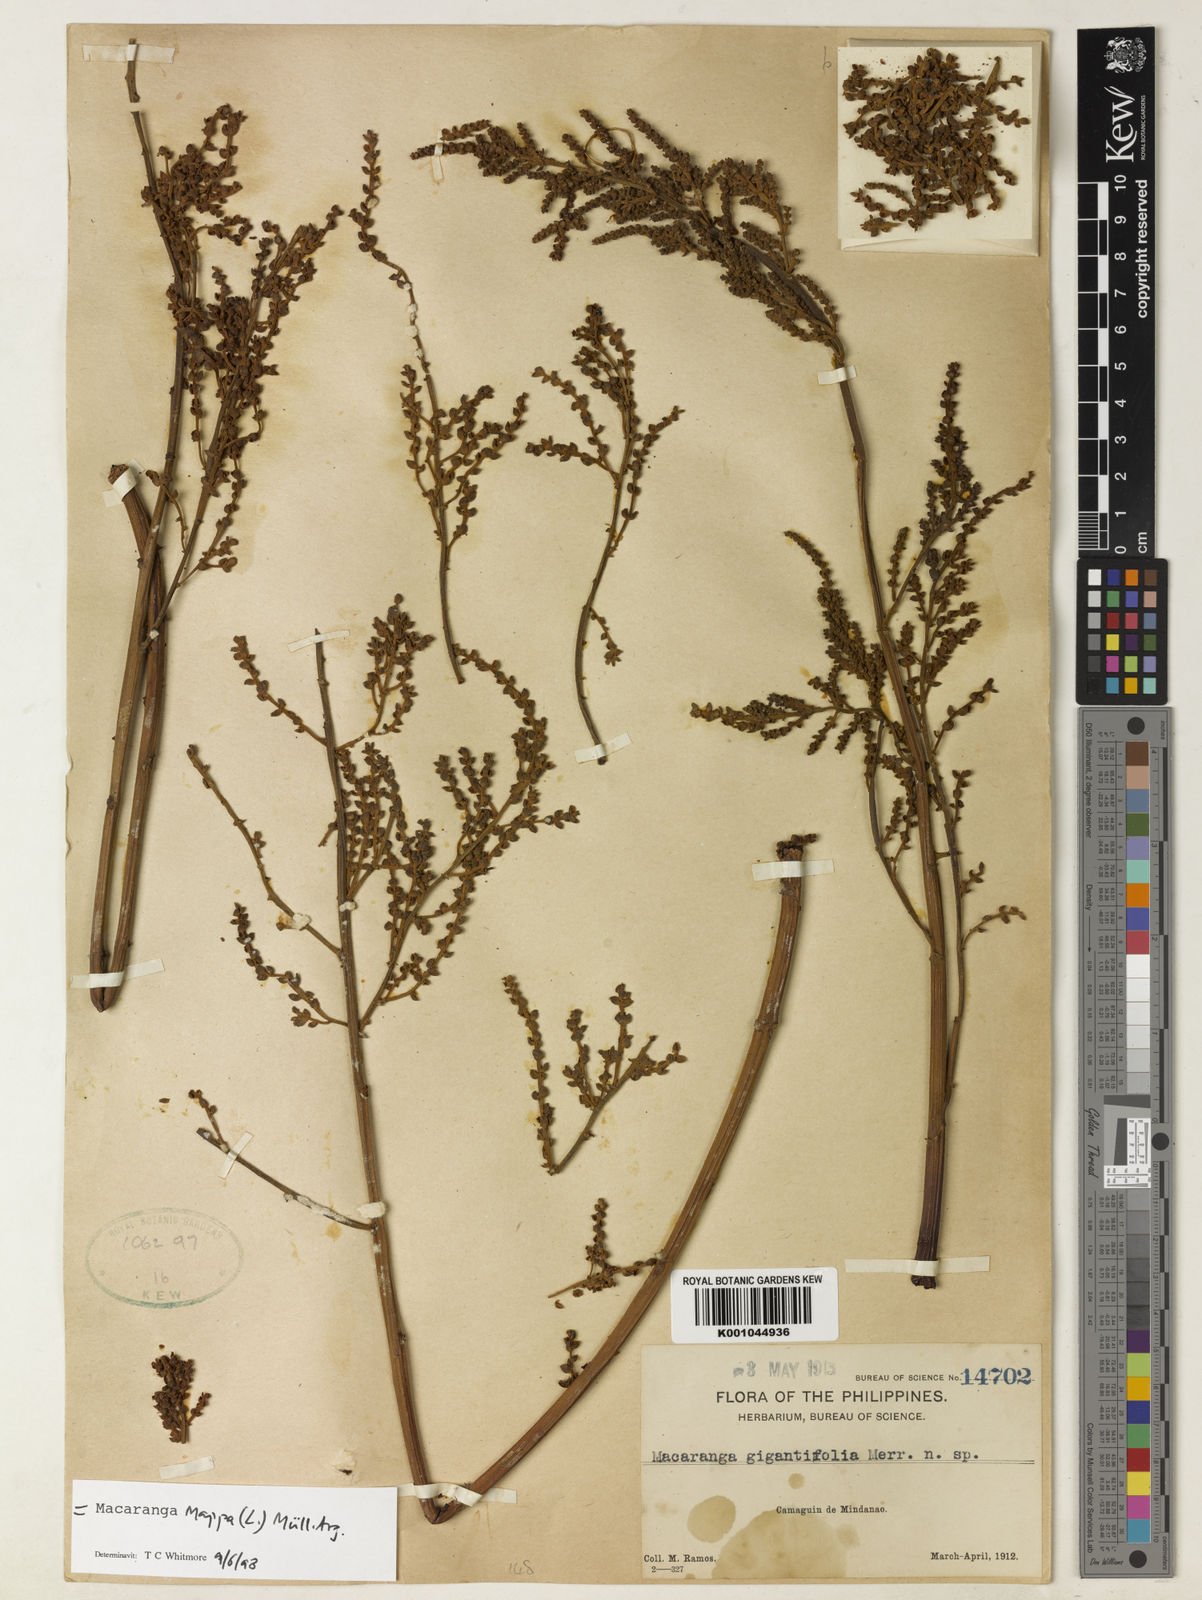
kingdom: Plantae
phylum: Tracheophyta
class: Magnoliopsida
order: Malpighiales
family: Euphorbiaceae
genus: Macaranga
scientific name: Macaranga
